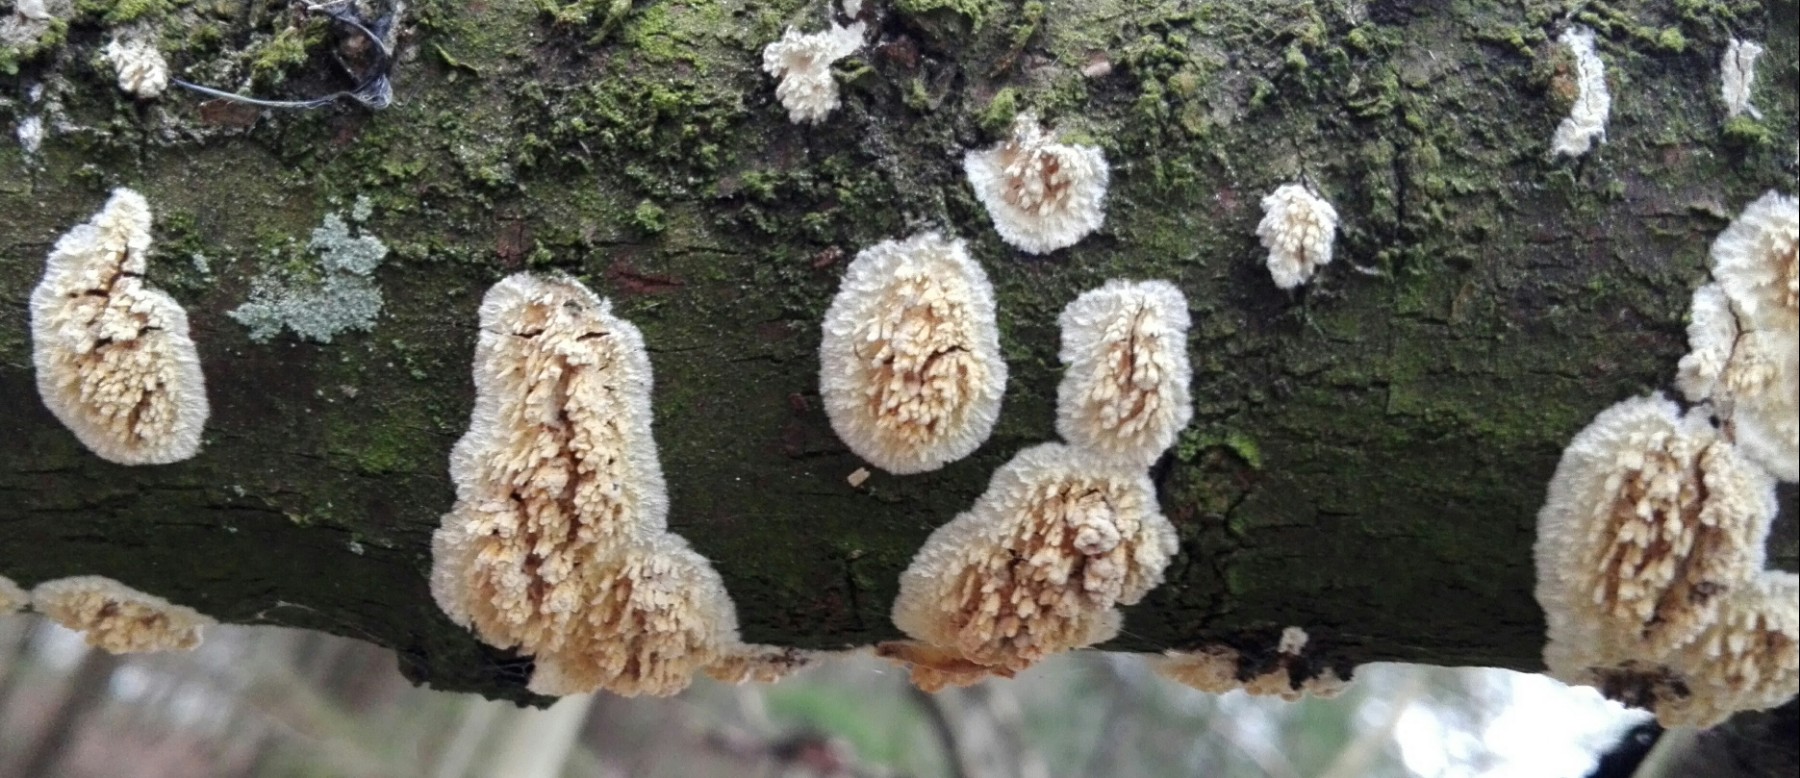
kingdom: Fungi
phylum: Basidiomycota
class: Agaricomycetes
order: Hymenochaetales
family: Schizoporaceae
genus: Xylodon
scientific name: Xylodon radula
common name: grovtandet kalkskind
